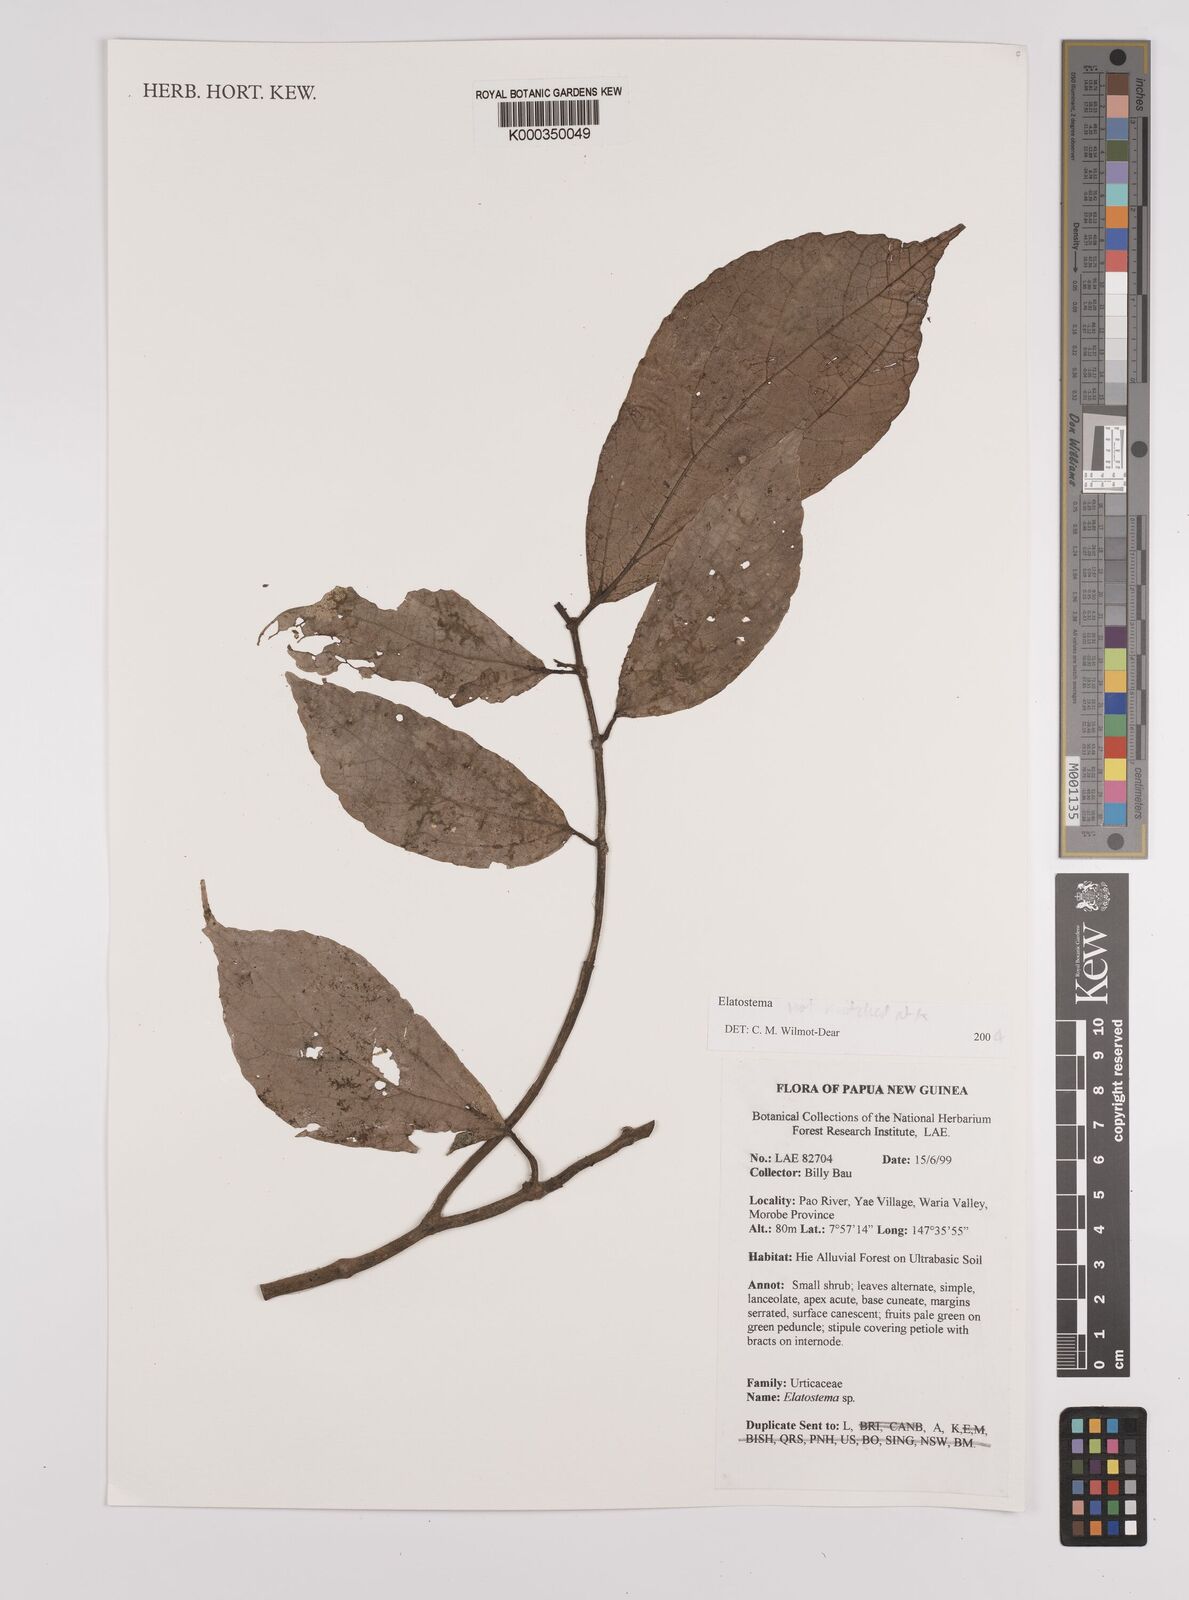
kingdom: Plantae
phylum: Tracheophyta
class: Magnoliopsida
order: Rosales
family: Urticaceae
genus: Elatostema
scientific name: Elatostema
